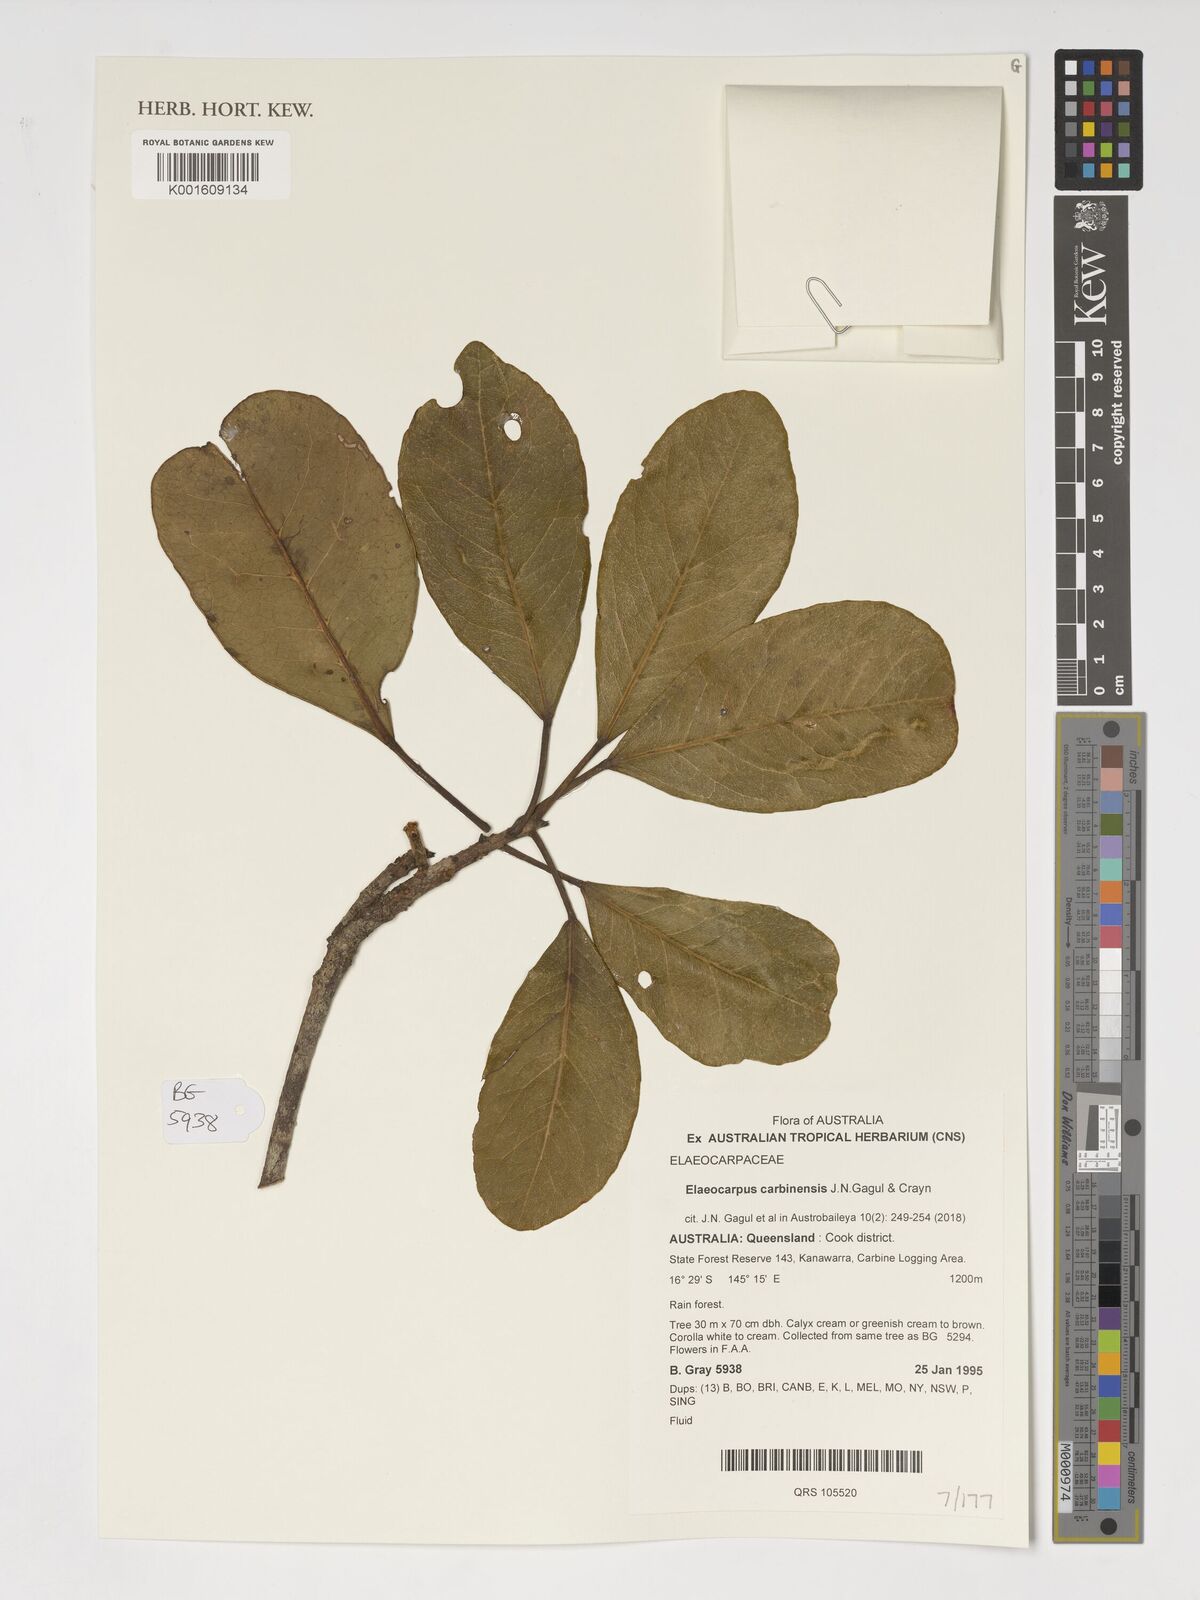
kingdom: Plantae
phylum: Tracheophyta
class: Magnoliopsida
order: Oxalidales
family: Elaeocarpaceae
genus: Elaeocarpus
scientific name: Elaeocarpus carbinensis
